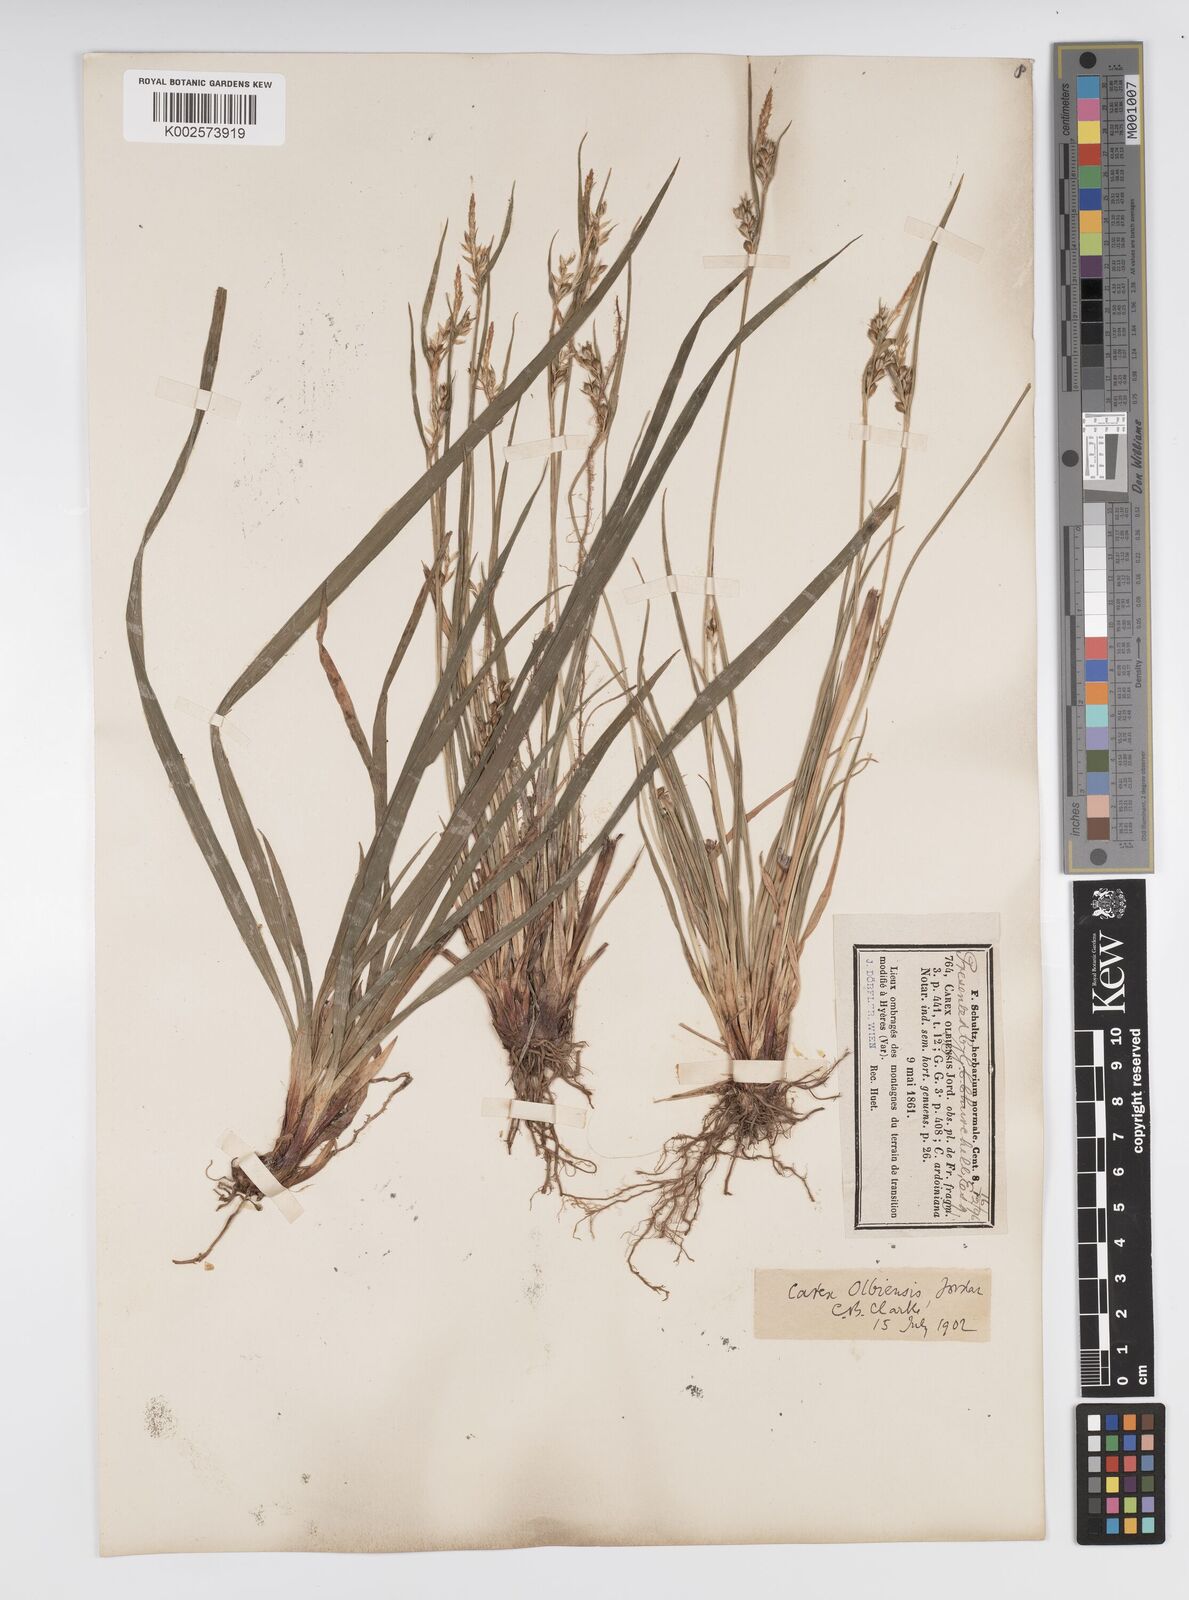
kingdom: Plantae
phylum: Tracheophyta
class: Liliopsida
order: Poales
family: Cyperaceae
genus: Carex
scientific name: Carex olbiensis
